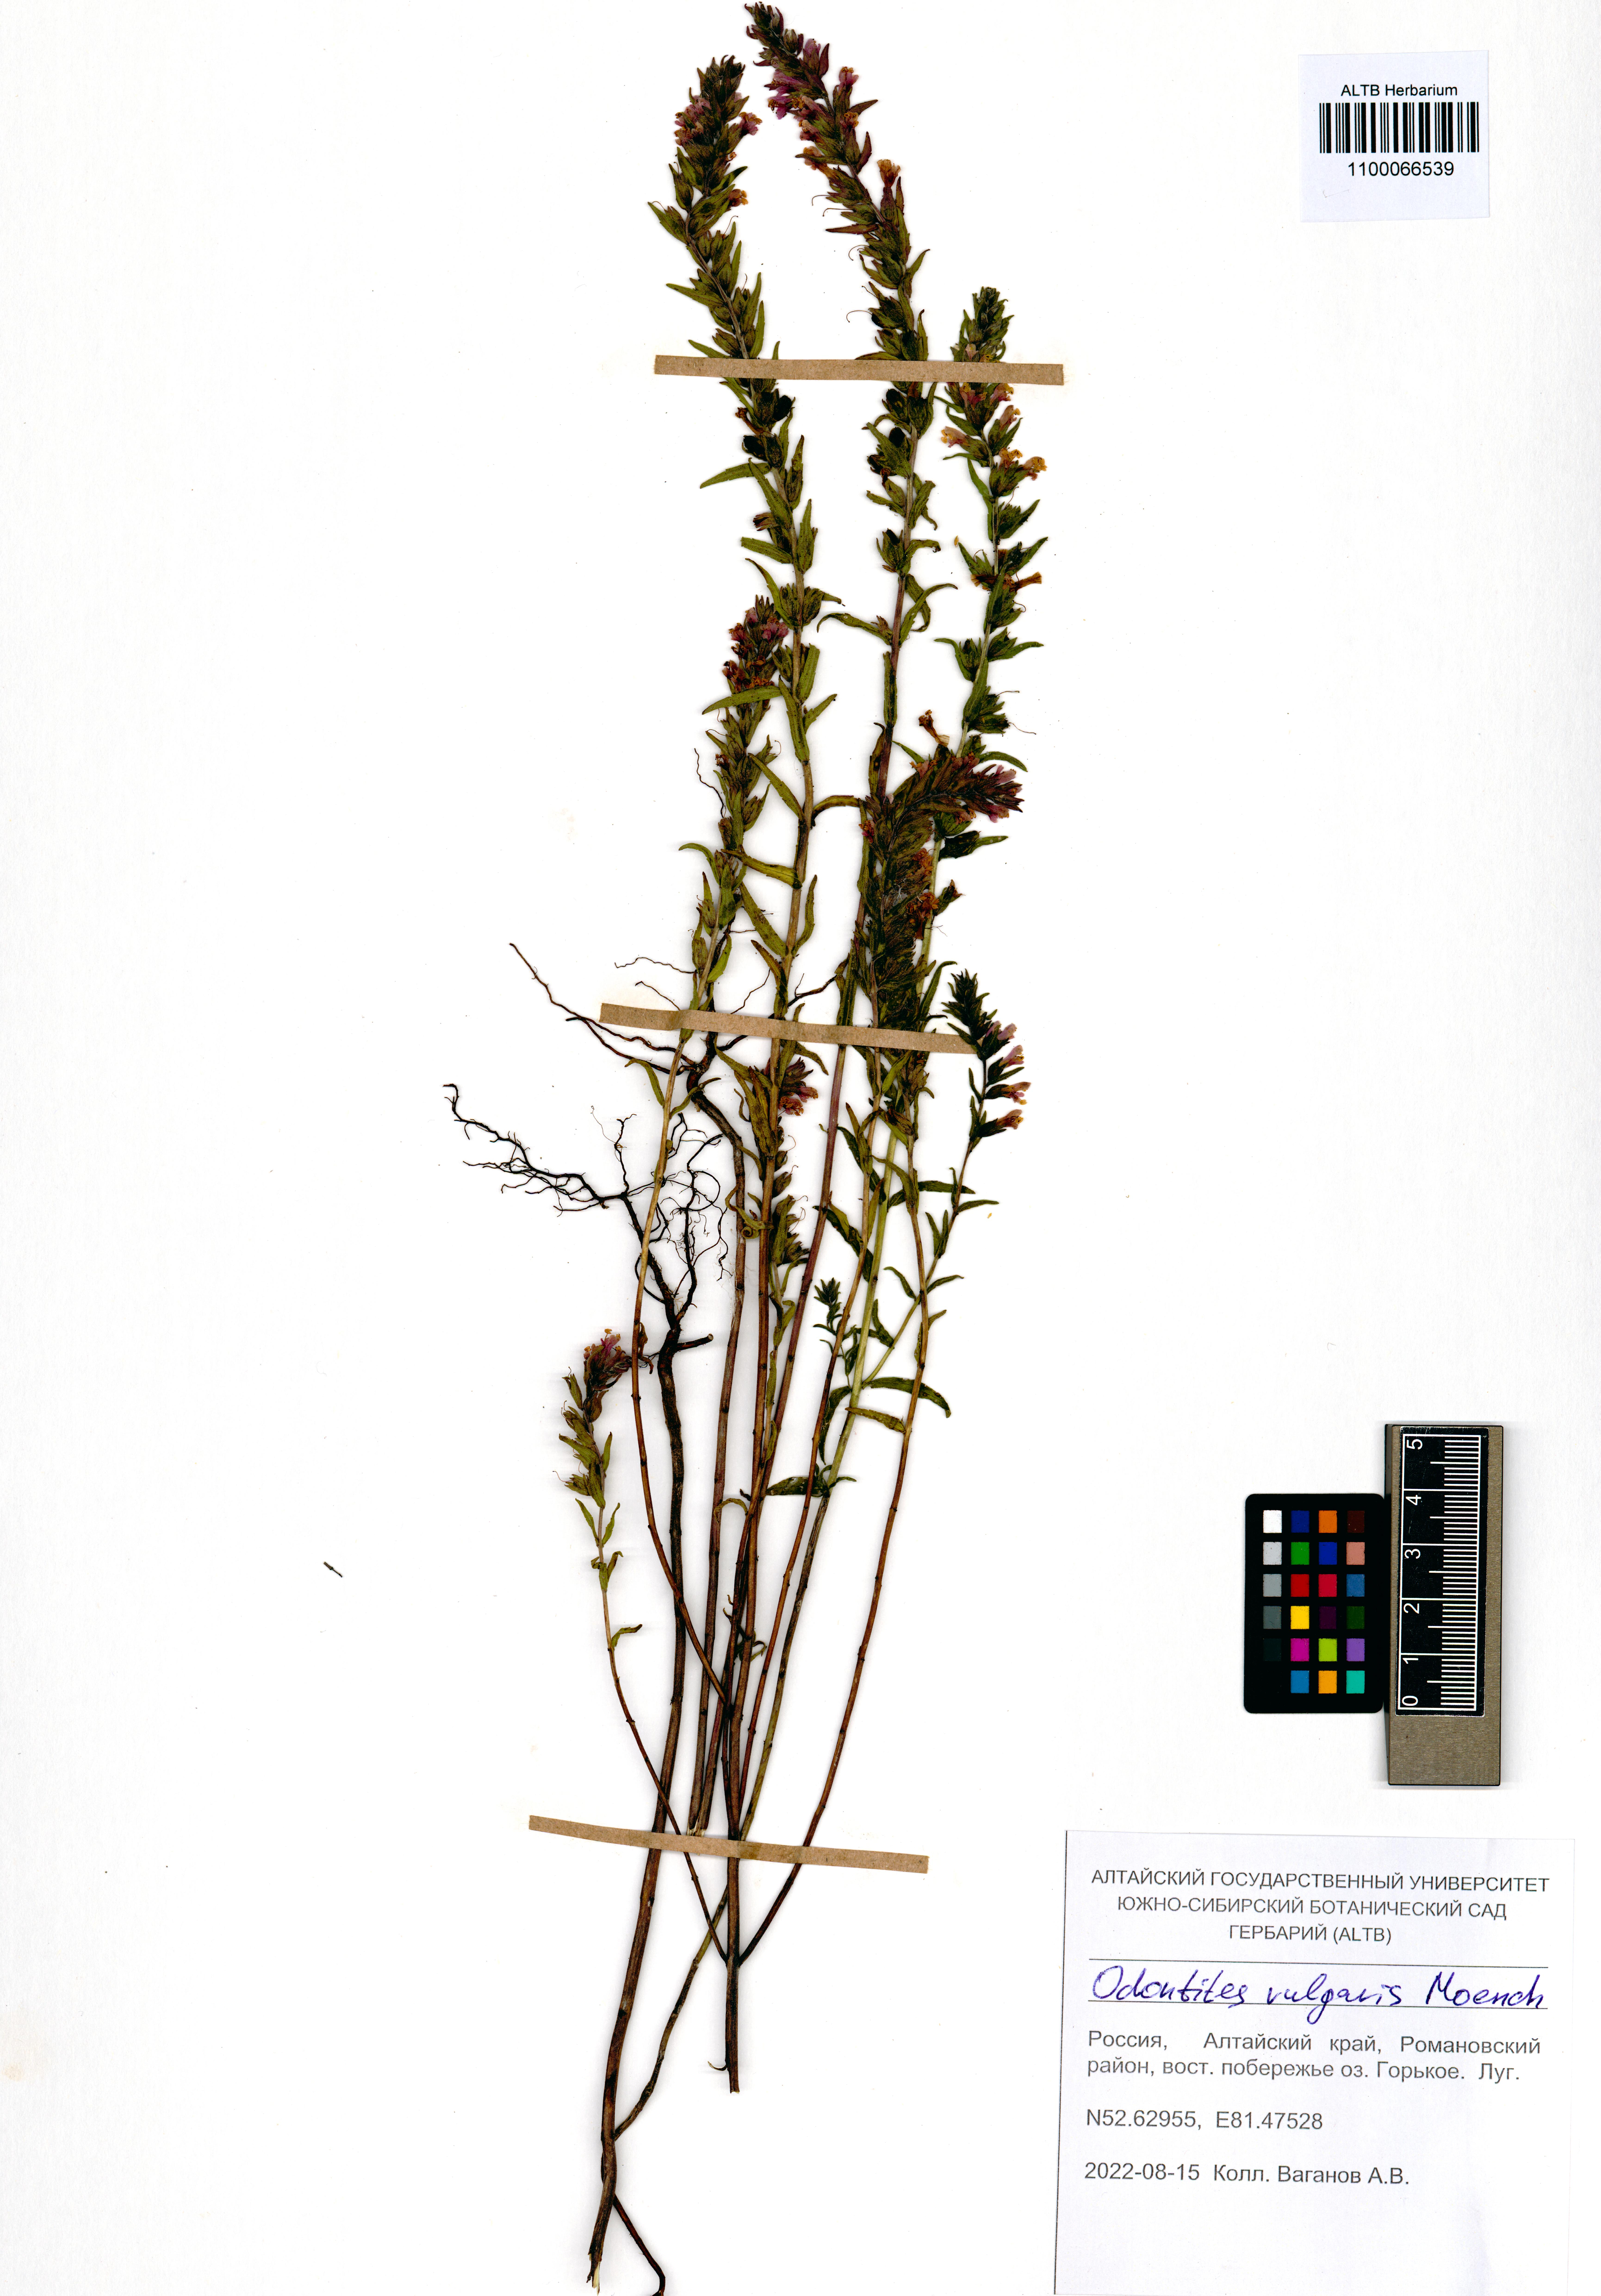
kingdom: Plantae
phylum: Tracheophyta
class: Magnoliopsida
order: Lamiales
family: Orobanchaceae
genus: Odontites
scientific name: Odontites vulgaris
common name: Broomrape
